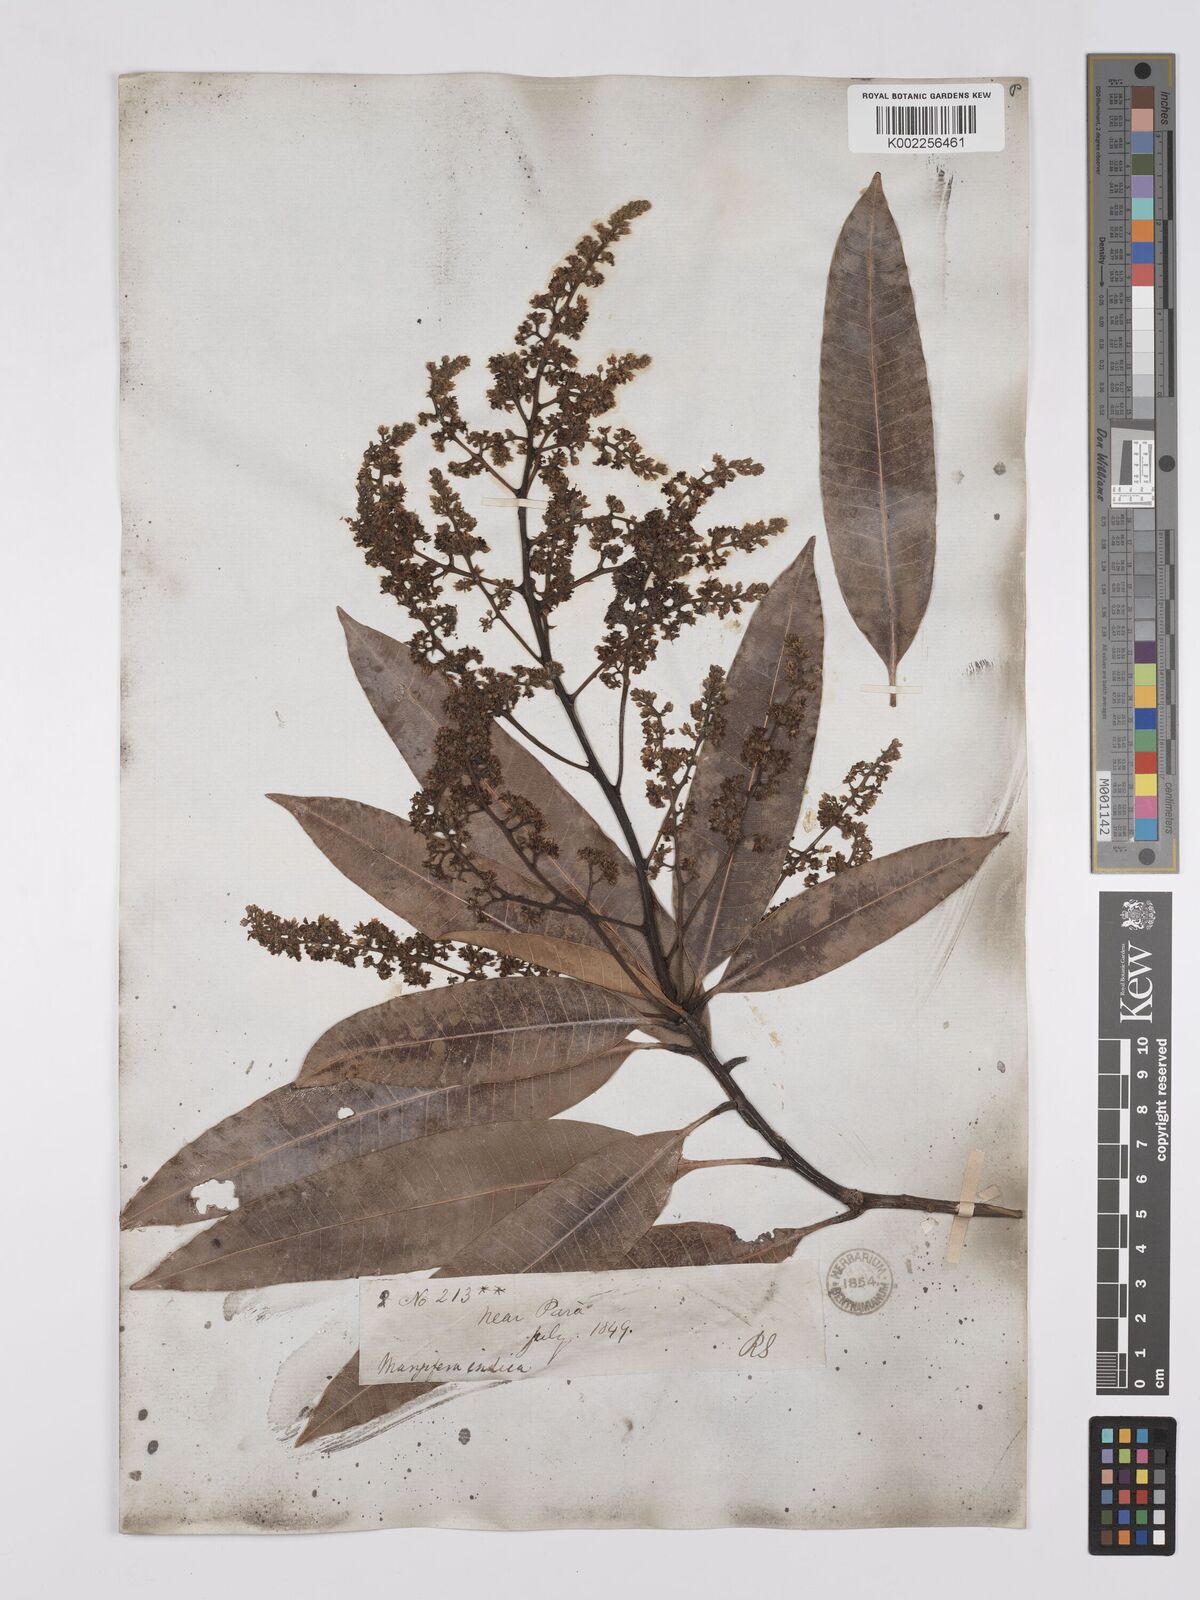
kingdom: Plantae
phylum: Tracheophyta
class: Magnoliopsida
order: Sapindales
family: Anacardiaceae
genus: Mangifera
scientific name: Mangifera indica
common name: Mango
